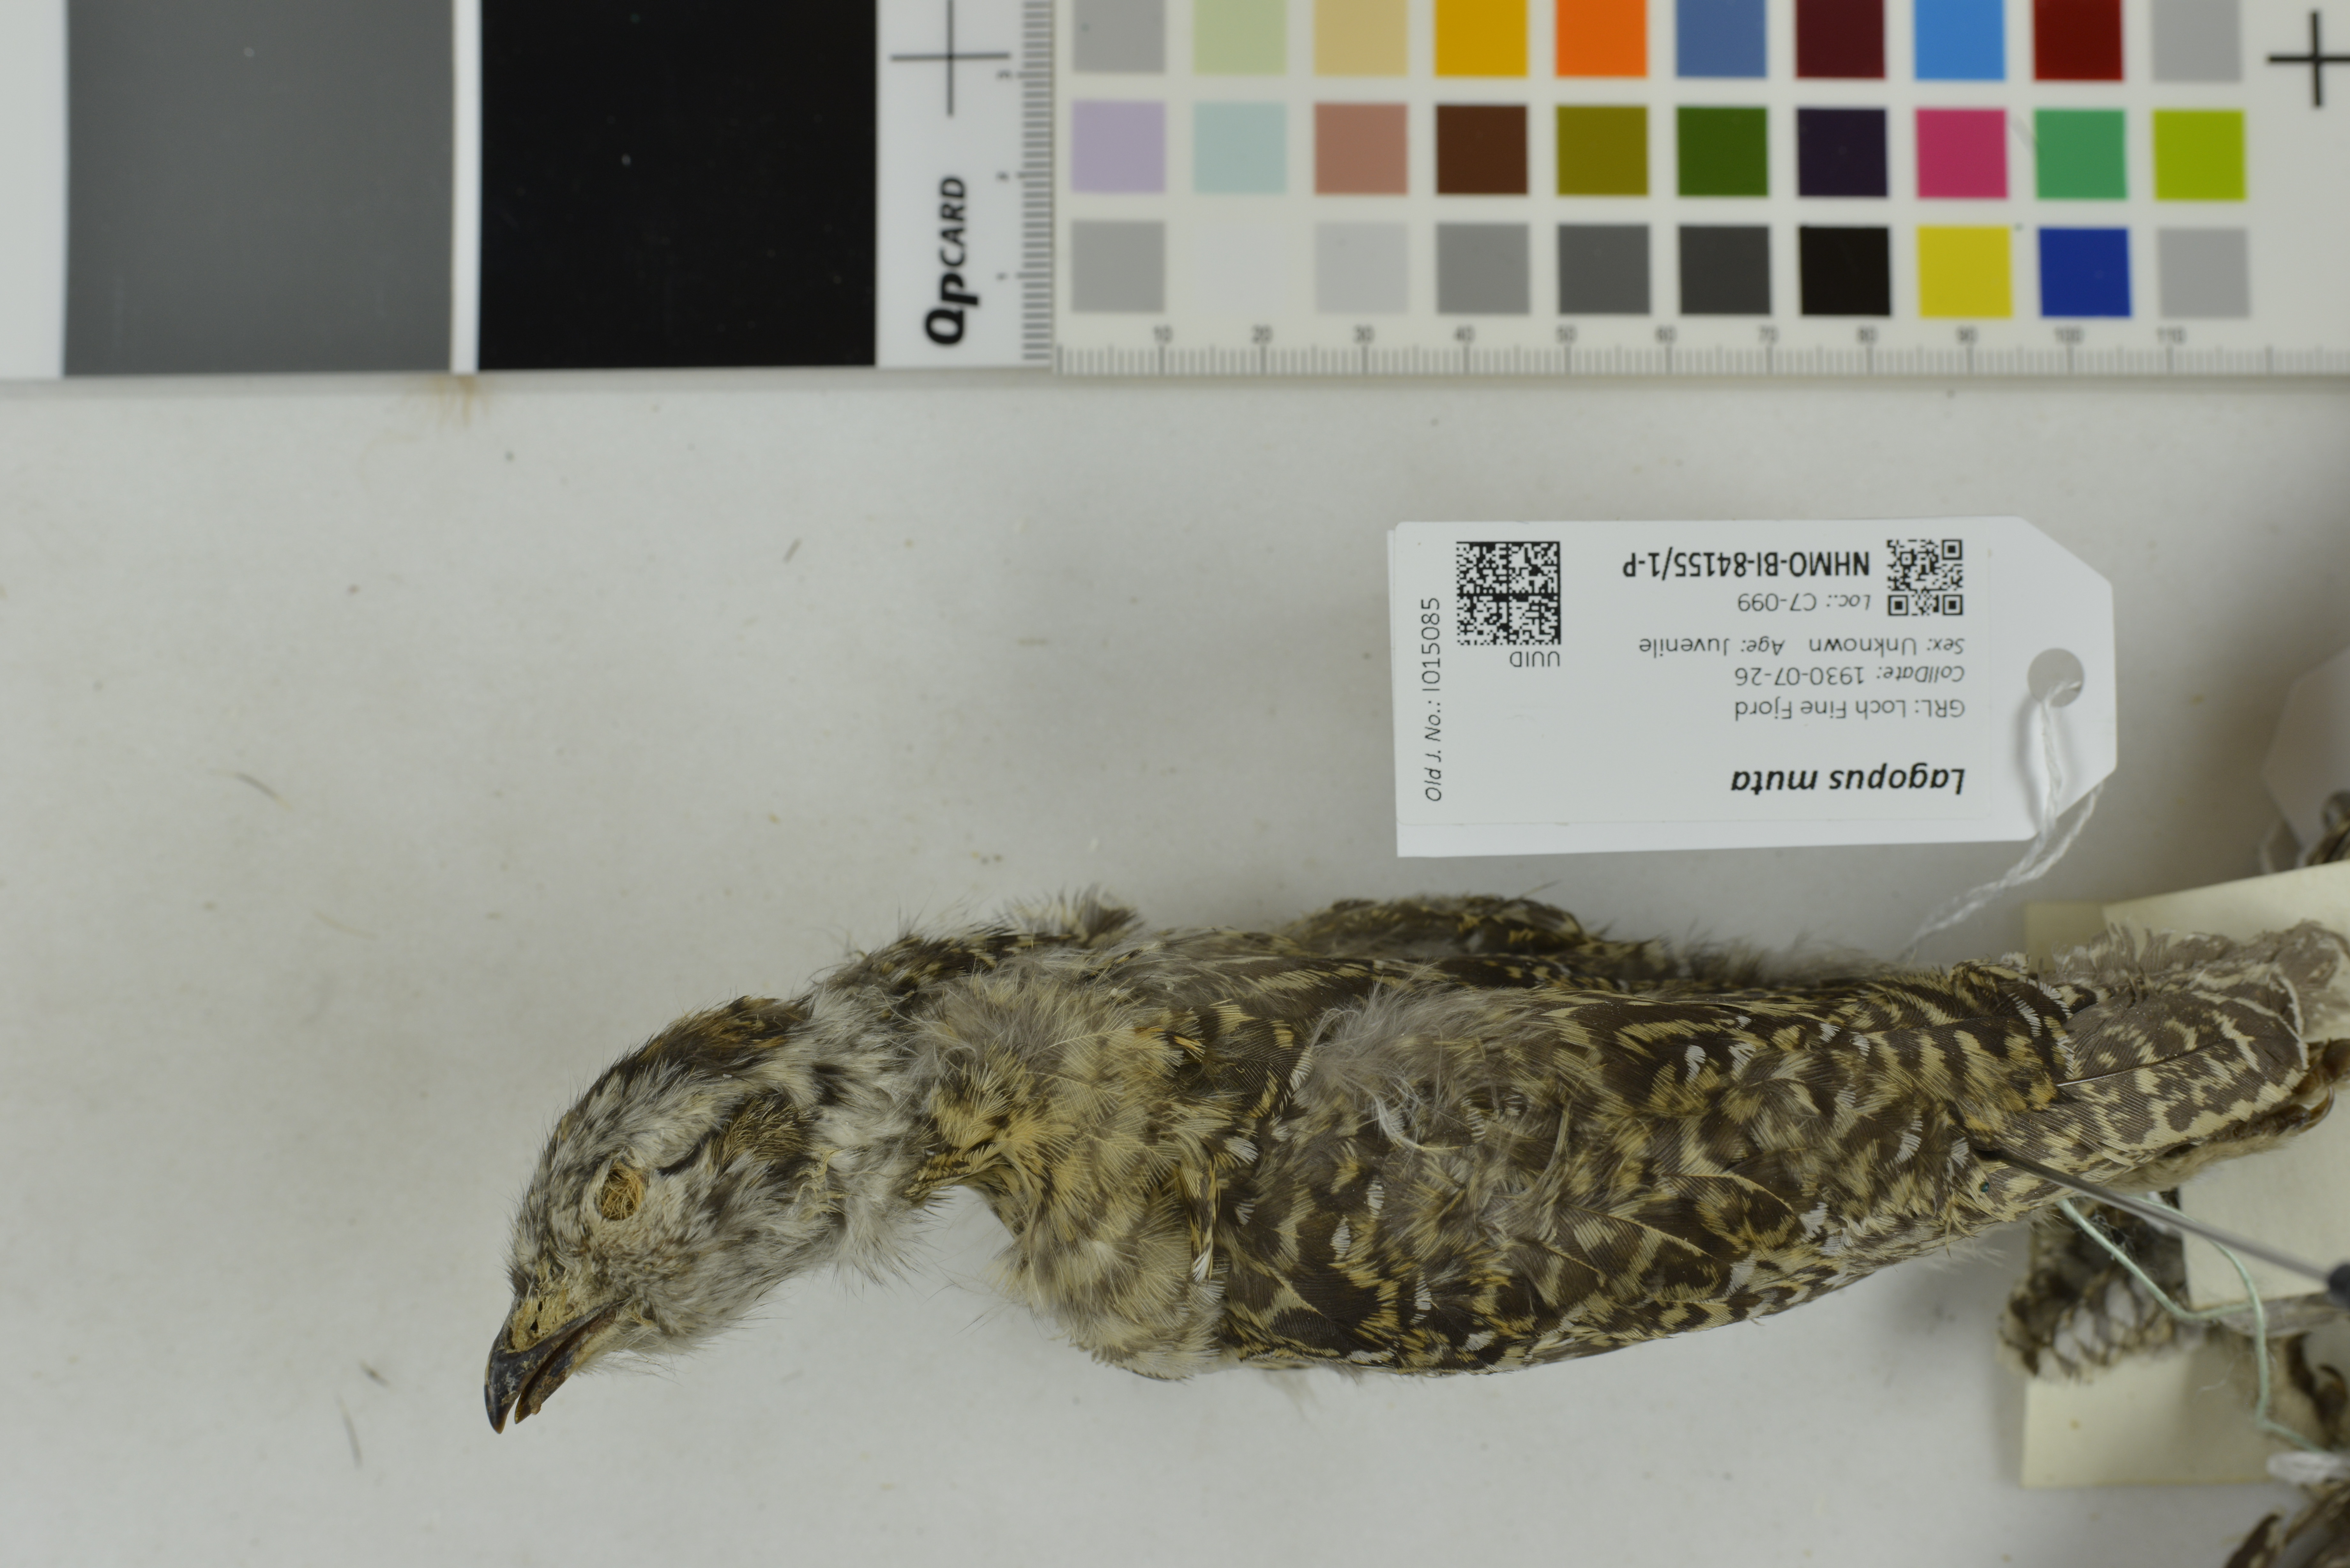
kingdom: Animalia
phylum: Chordata
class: Aves
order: Galliformes
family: Phasianidae
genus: Lagopus
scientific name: Lagopus muta
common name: Rock ptarmigan
